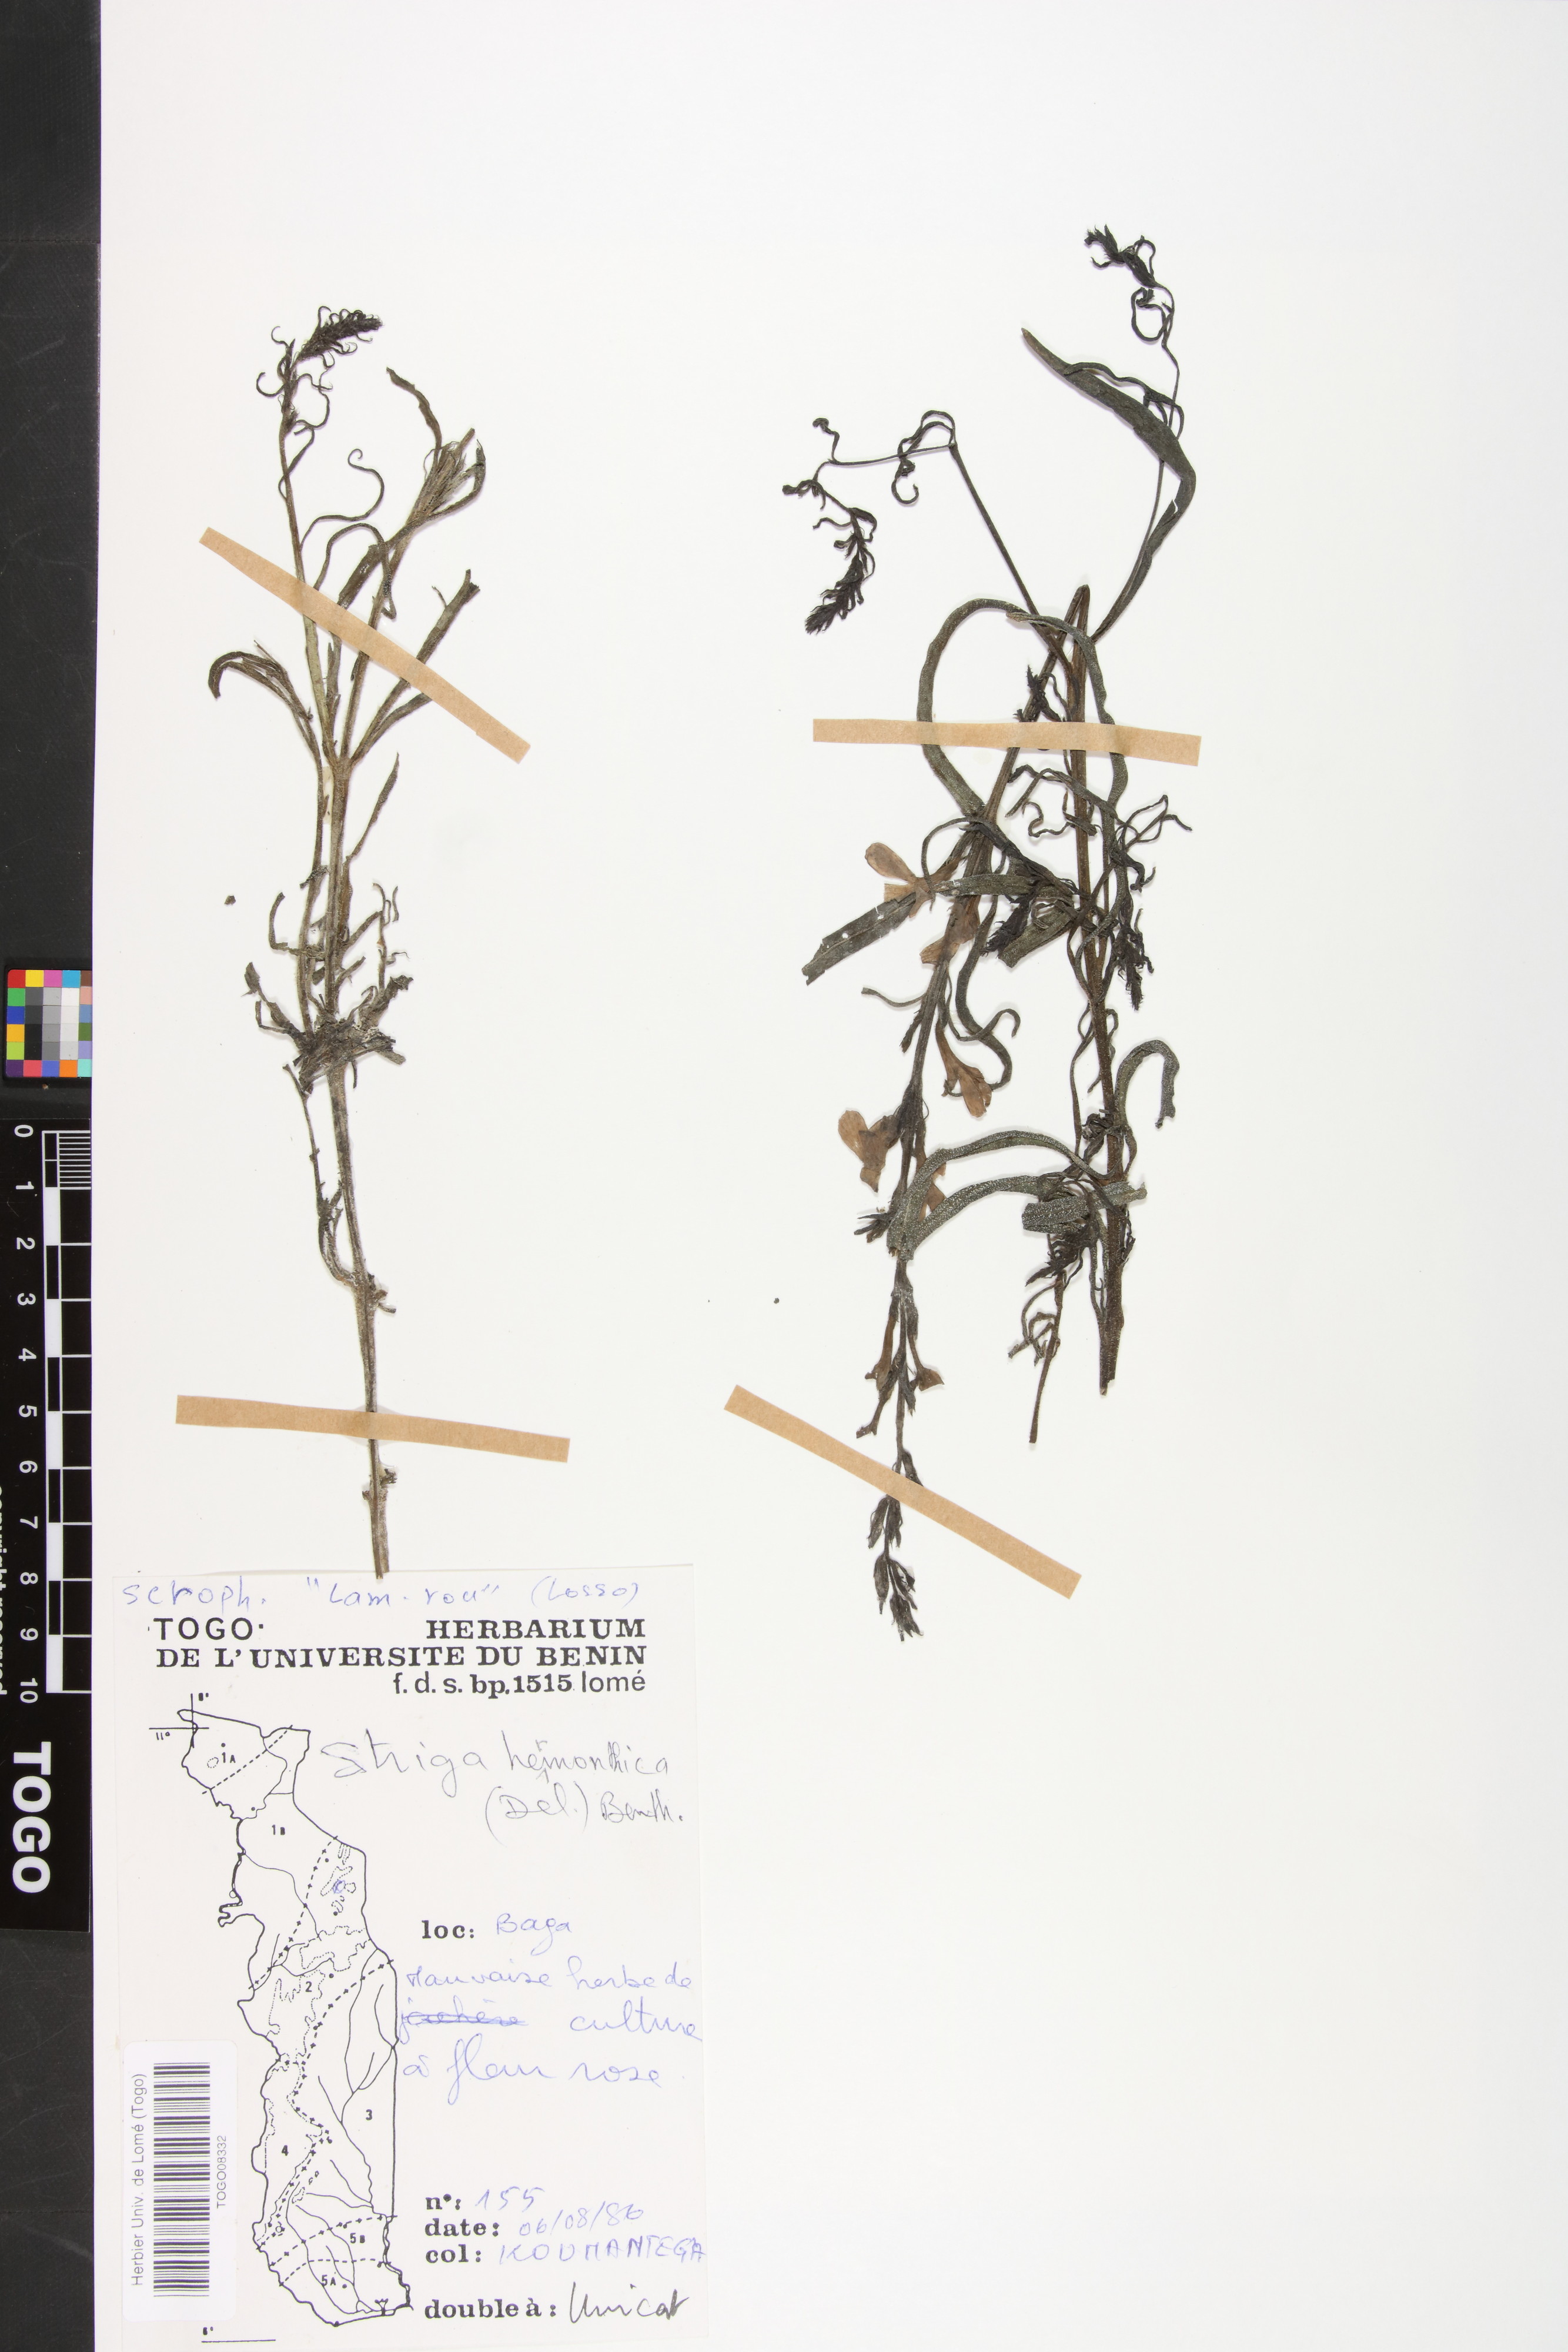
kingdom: Plantae
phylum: Tracheophyta
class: Magnoliopsida
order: Lamiales
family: Orobanchaceae
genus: Striga
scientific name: Striga hermonthica
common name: Purple witchweed
